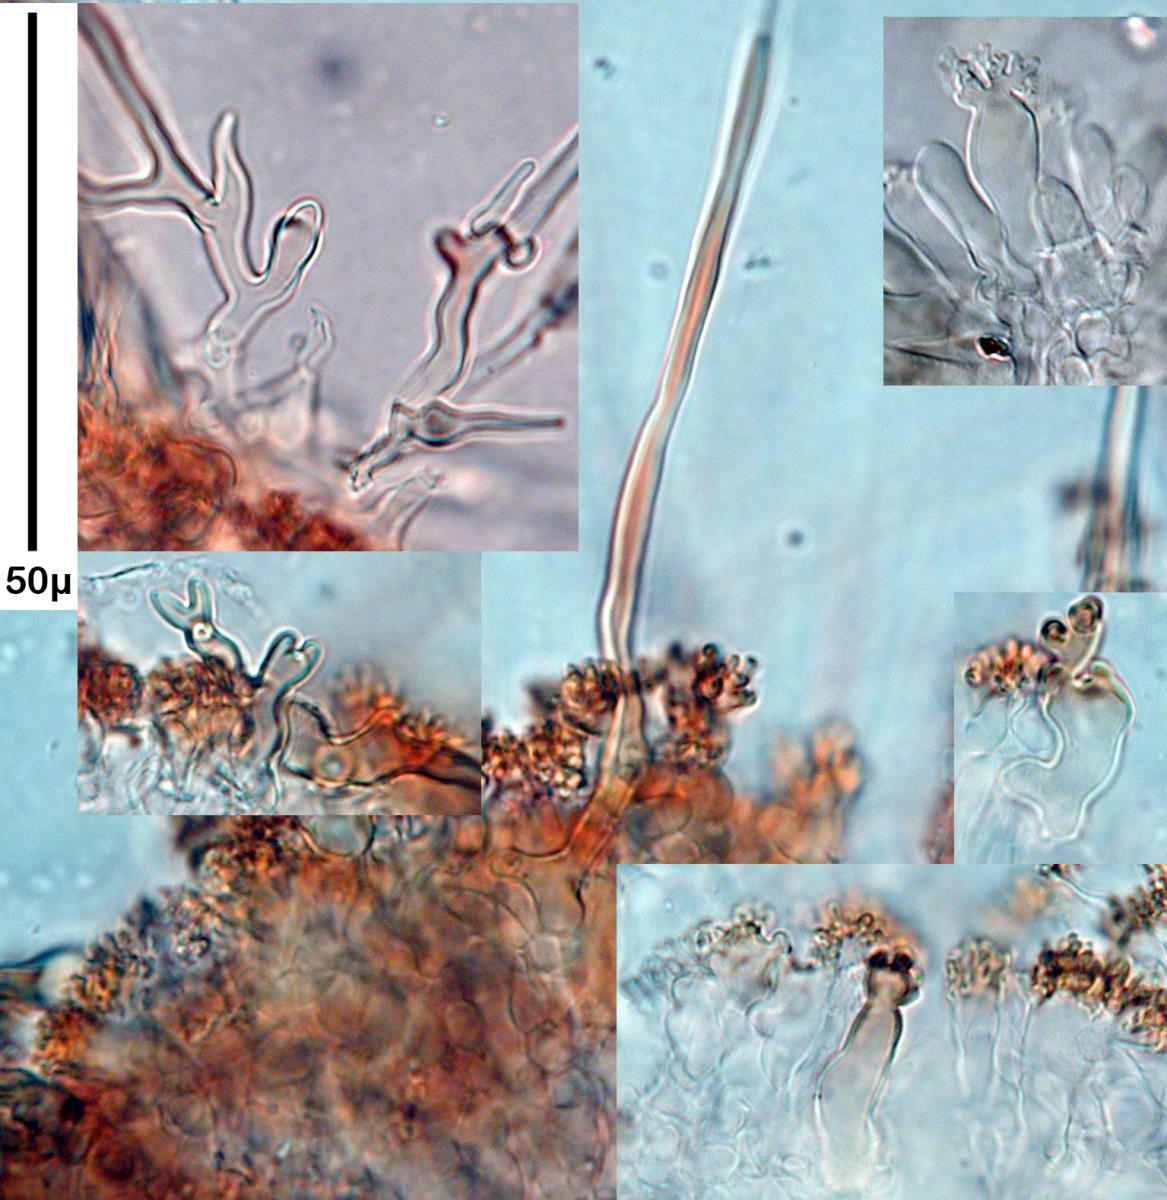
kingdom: Fungi
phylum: Basidiomycota
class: Agaricomycetes
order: Agaricales
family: Marasmiaceae
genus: Marasmius
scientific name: Marasmius croceus
